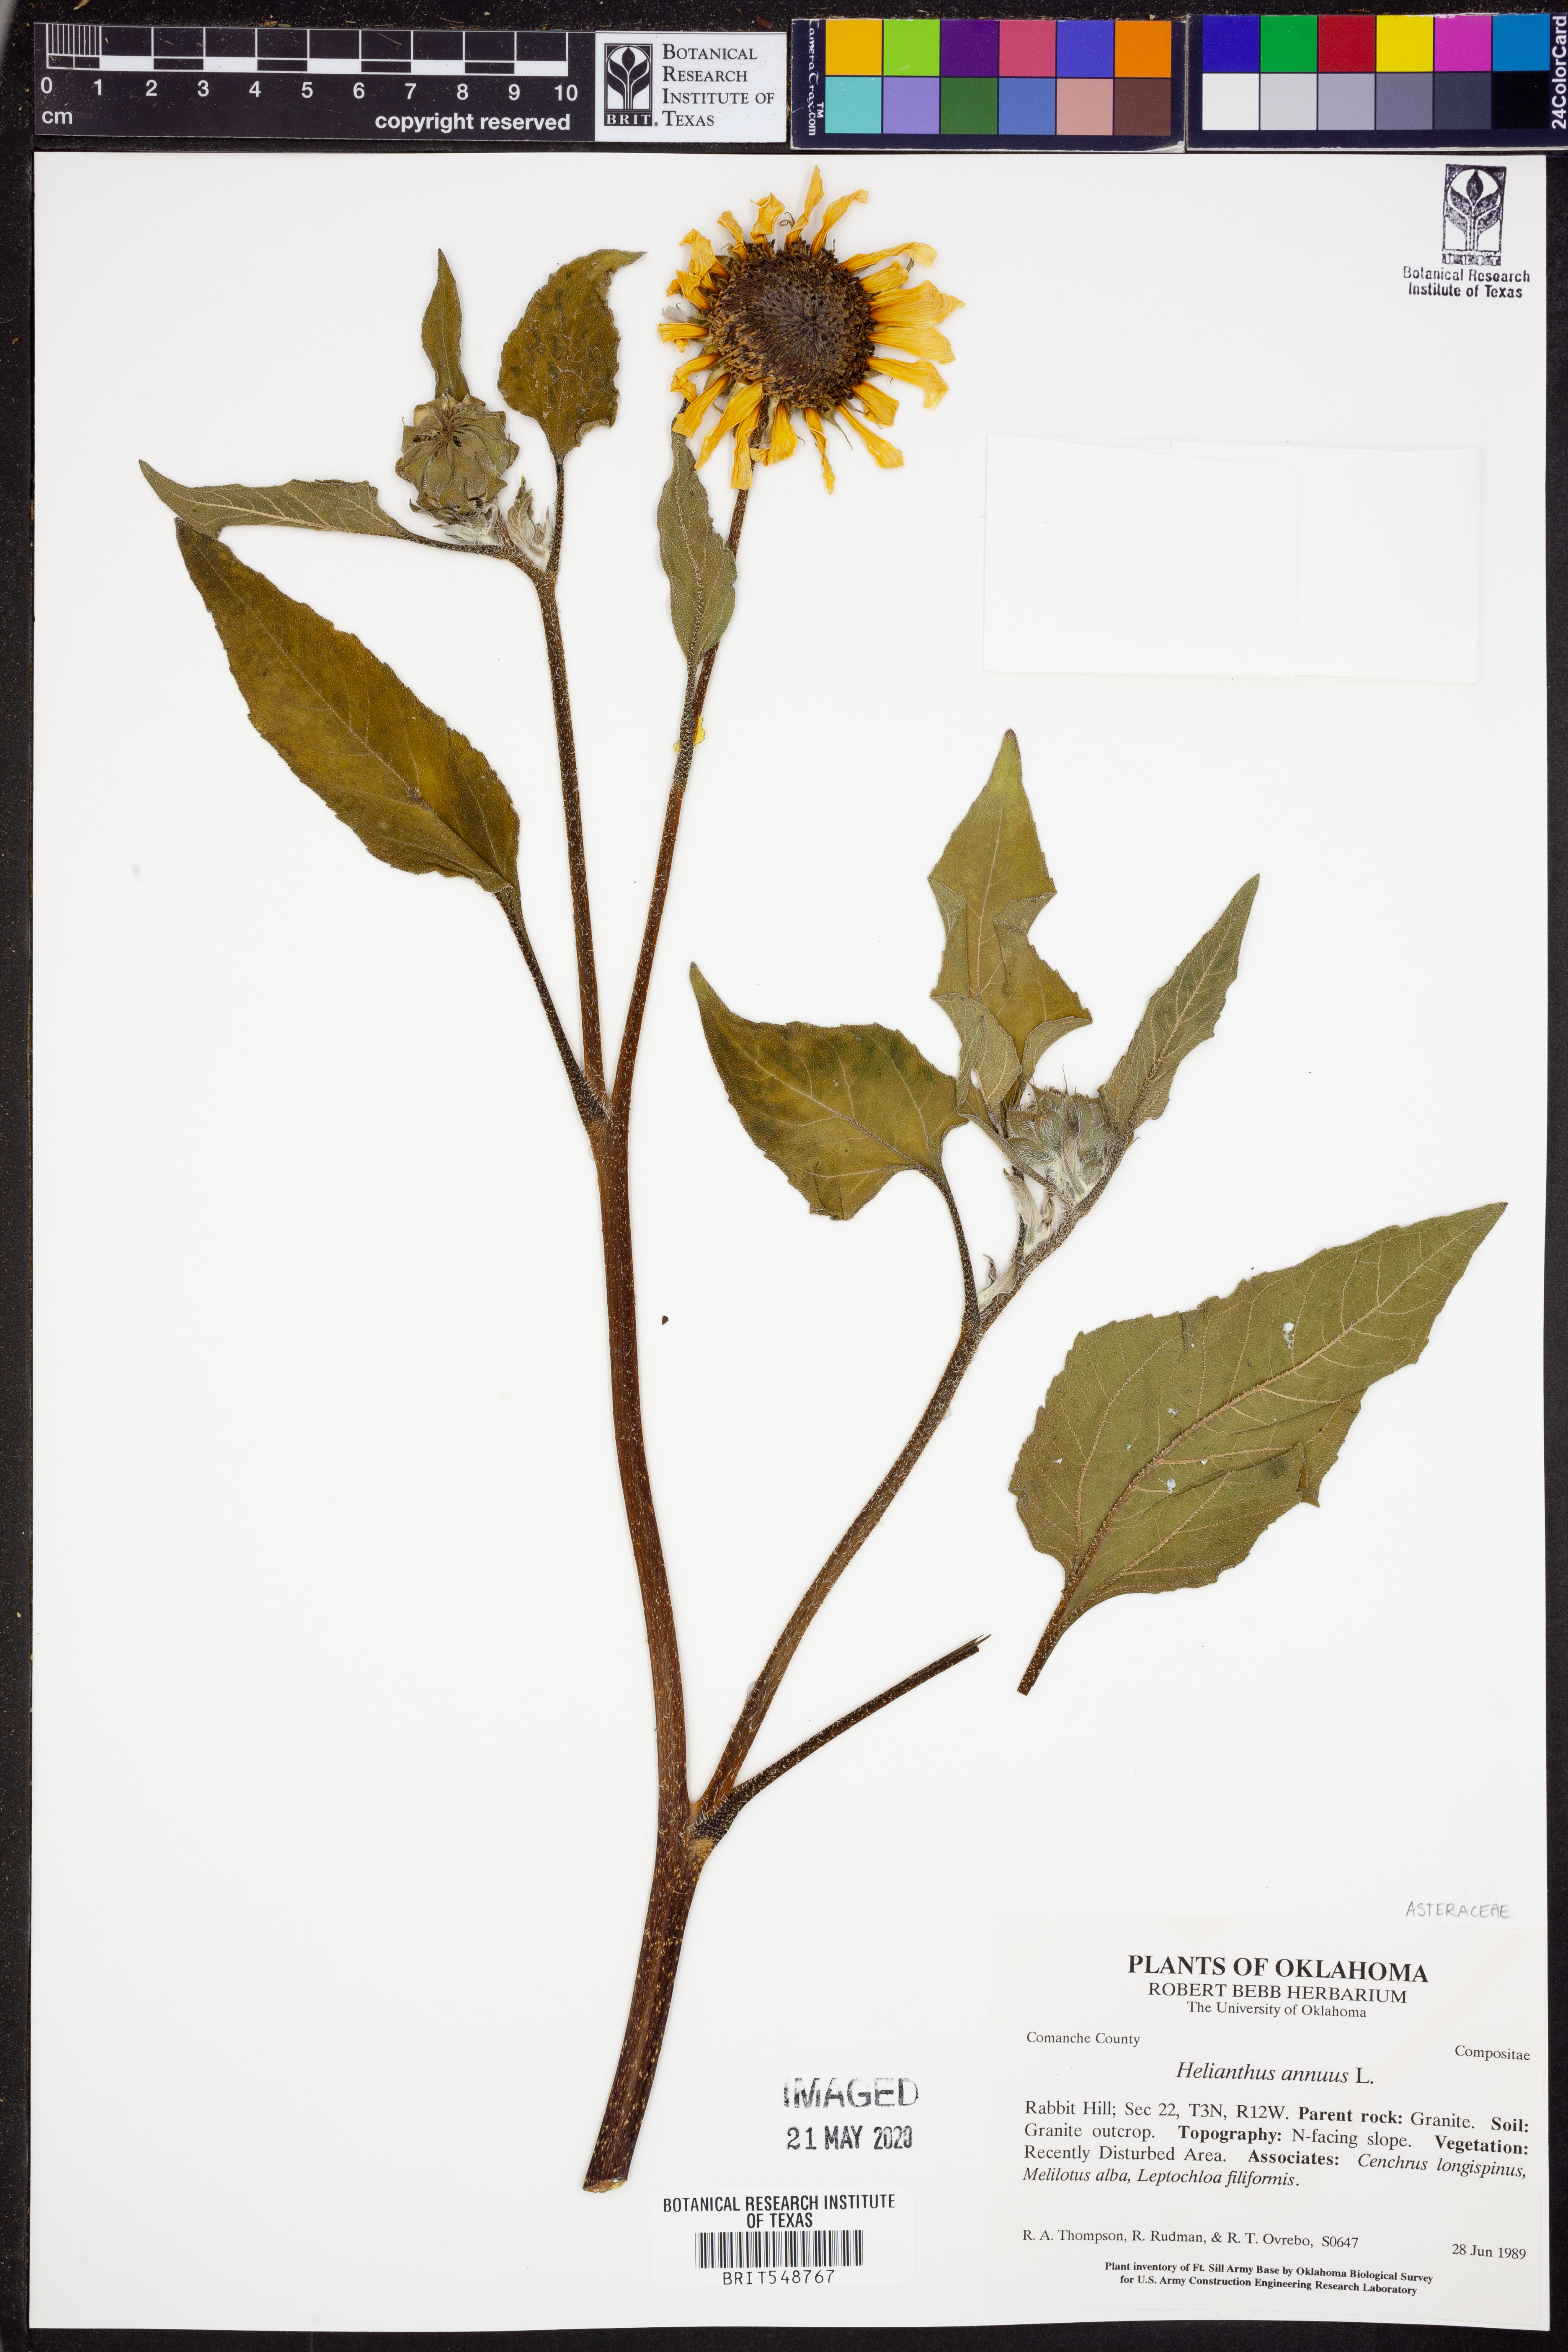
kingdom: Plantae
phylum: Tracheophyta
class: Magnoliopsida
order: Asterales
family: Asteraceae
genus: Helianthus
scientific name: Helianthus annuus
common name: Sunflower
